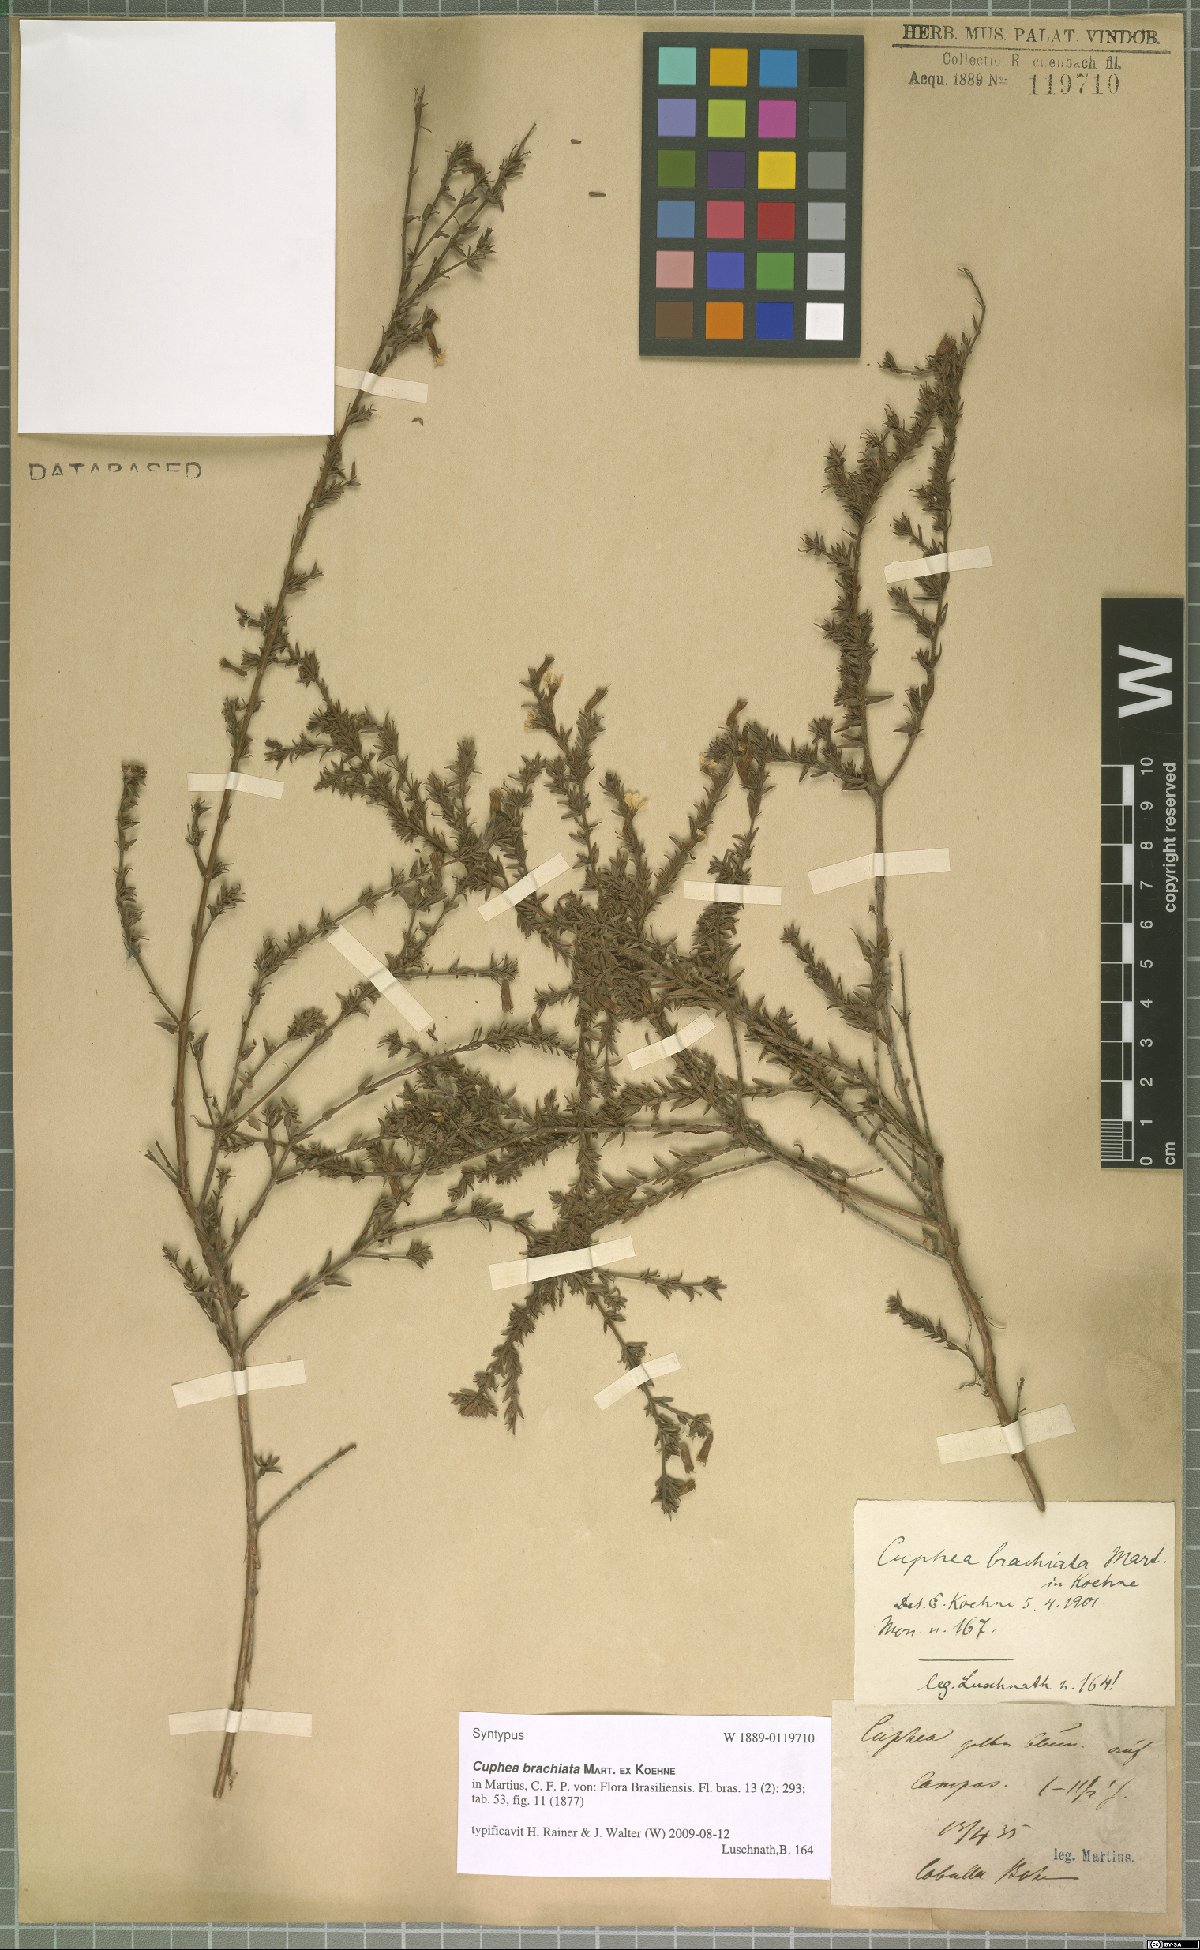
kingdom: Plantae
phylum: Tracheophyta
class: Magnoliopsida
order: Myrtales
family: Lythraceae
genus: Cuphea
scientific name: Cuphea brachiata
